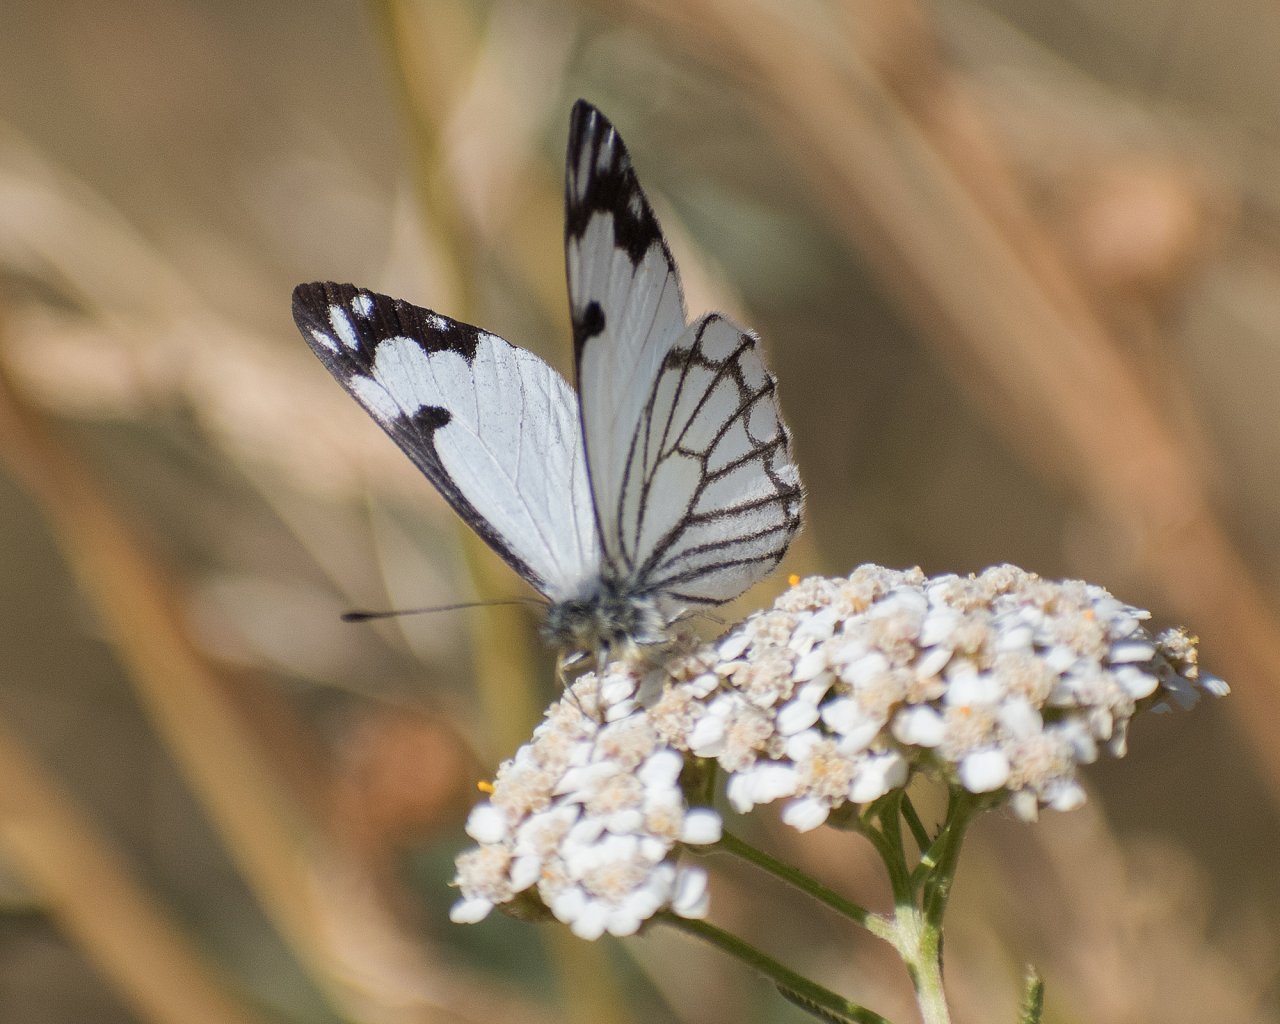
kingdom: Animalia
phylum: Arthropoda
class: Insecta
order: Lepidoptera
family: Pieridae
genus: Neophasia
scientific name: Neophasia menapia
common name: Pine White
